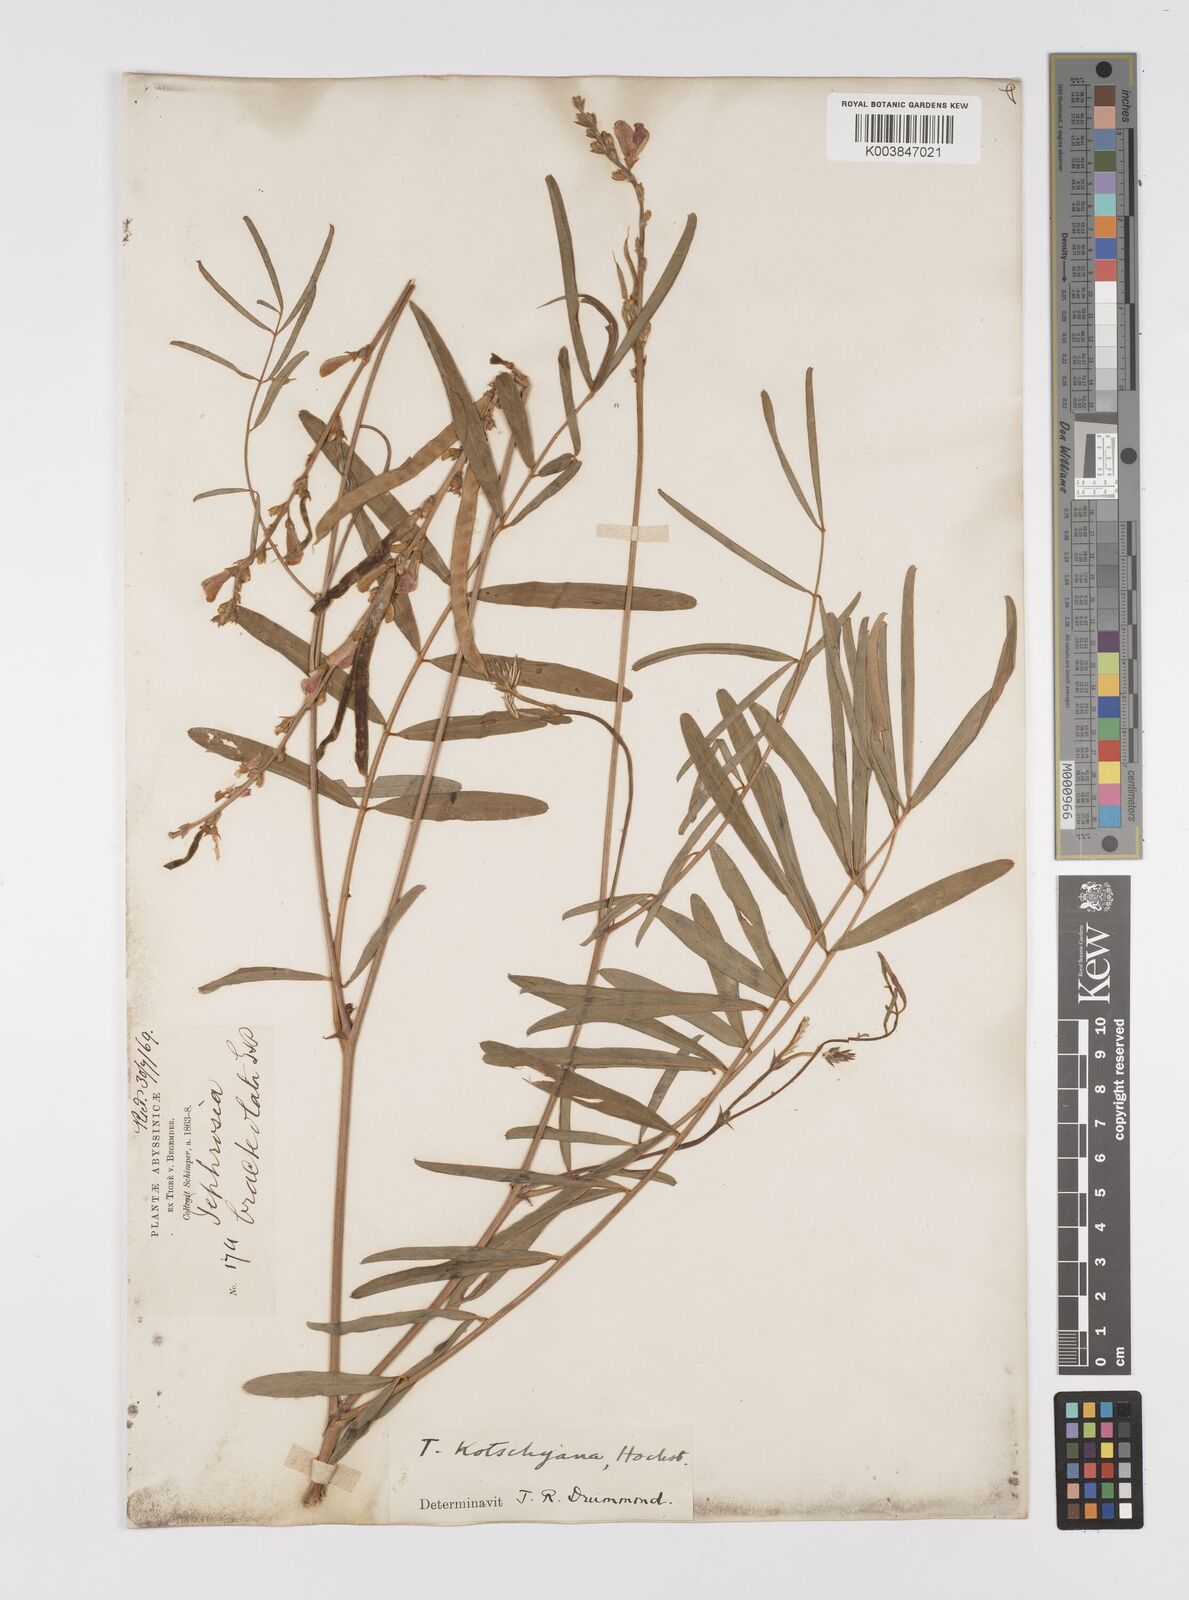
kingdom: Plantae
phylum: Tracheophyta
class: Magnoliopsida
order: Fabales
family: Fabaceae
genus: Tephrosia
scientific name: Tephrosia bracteolata
